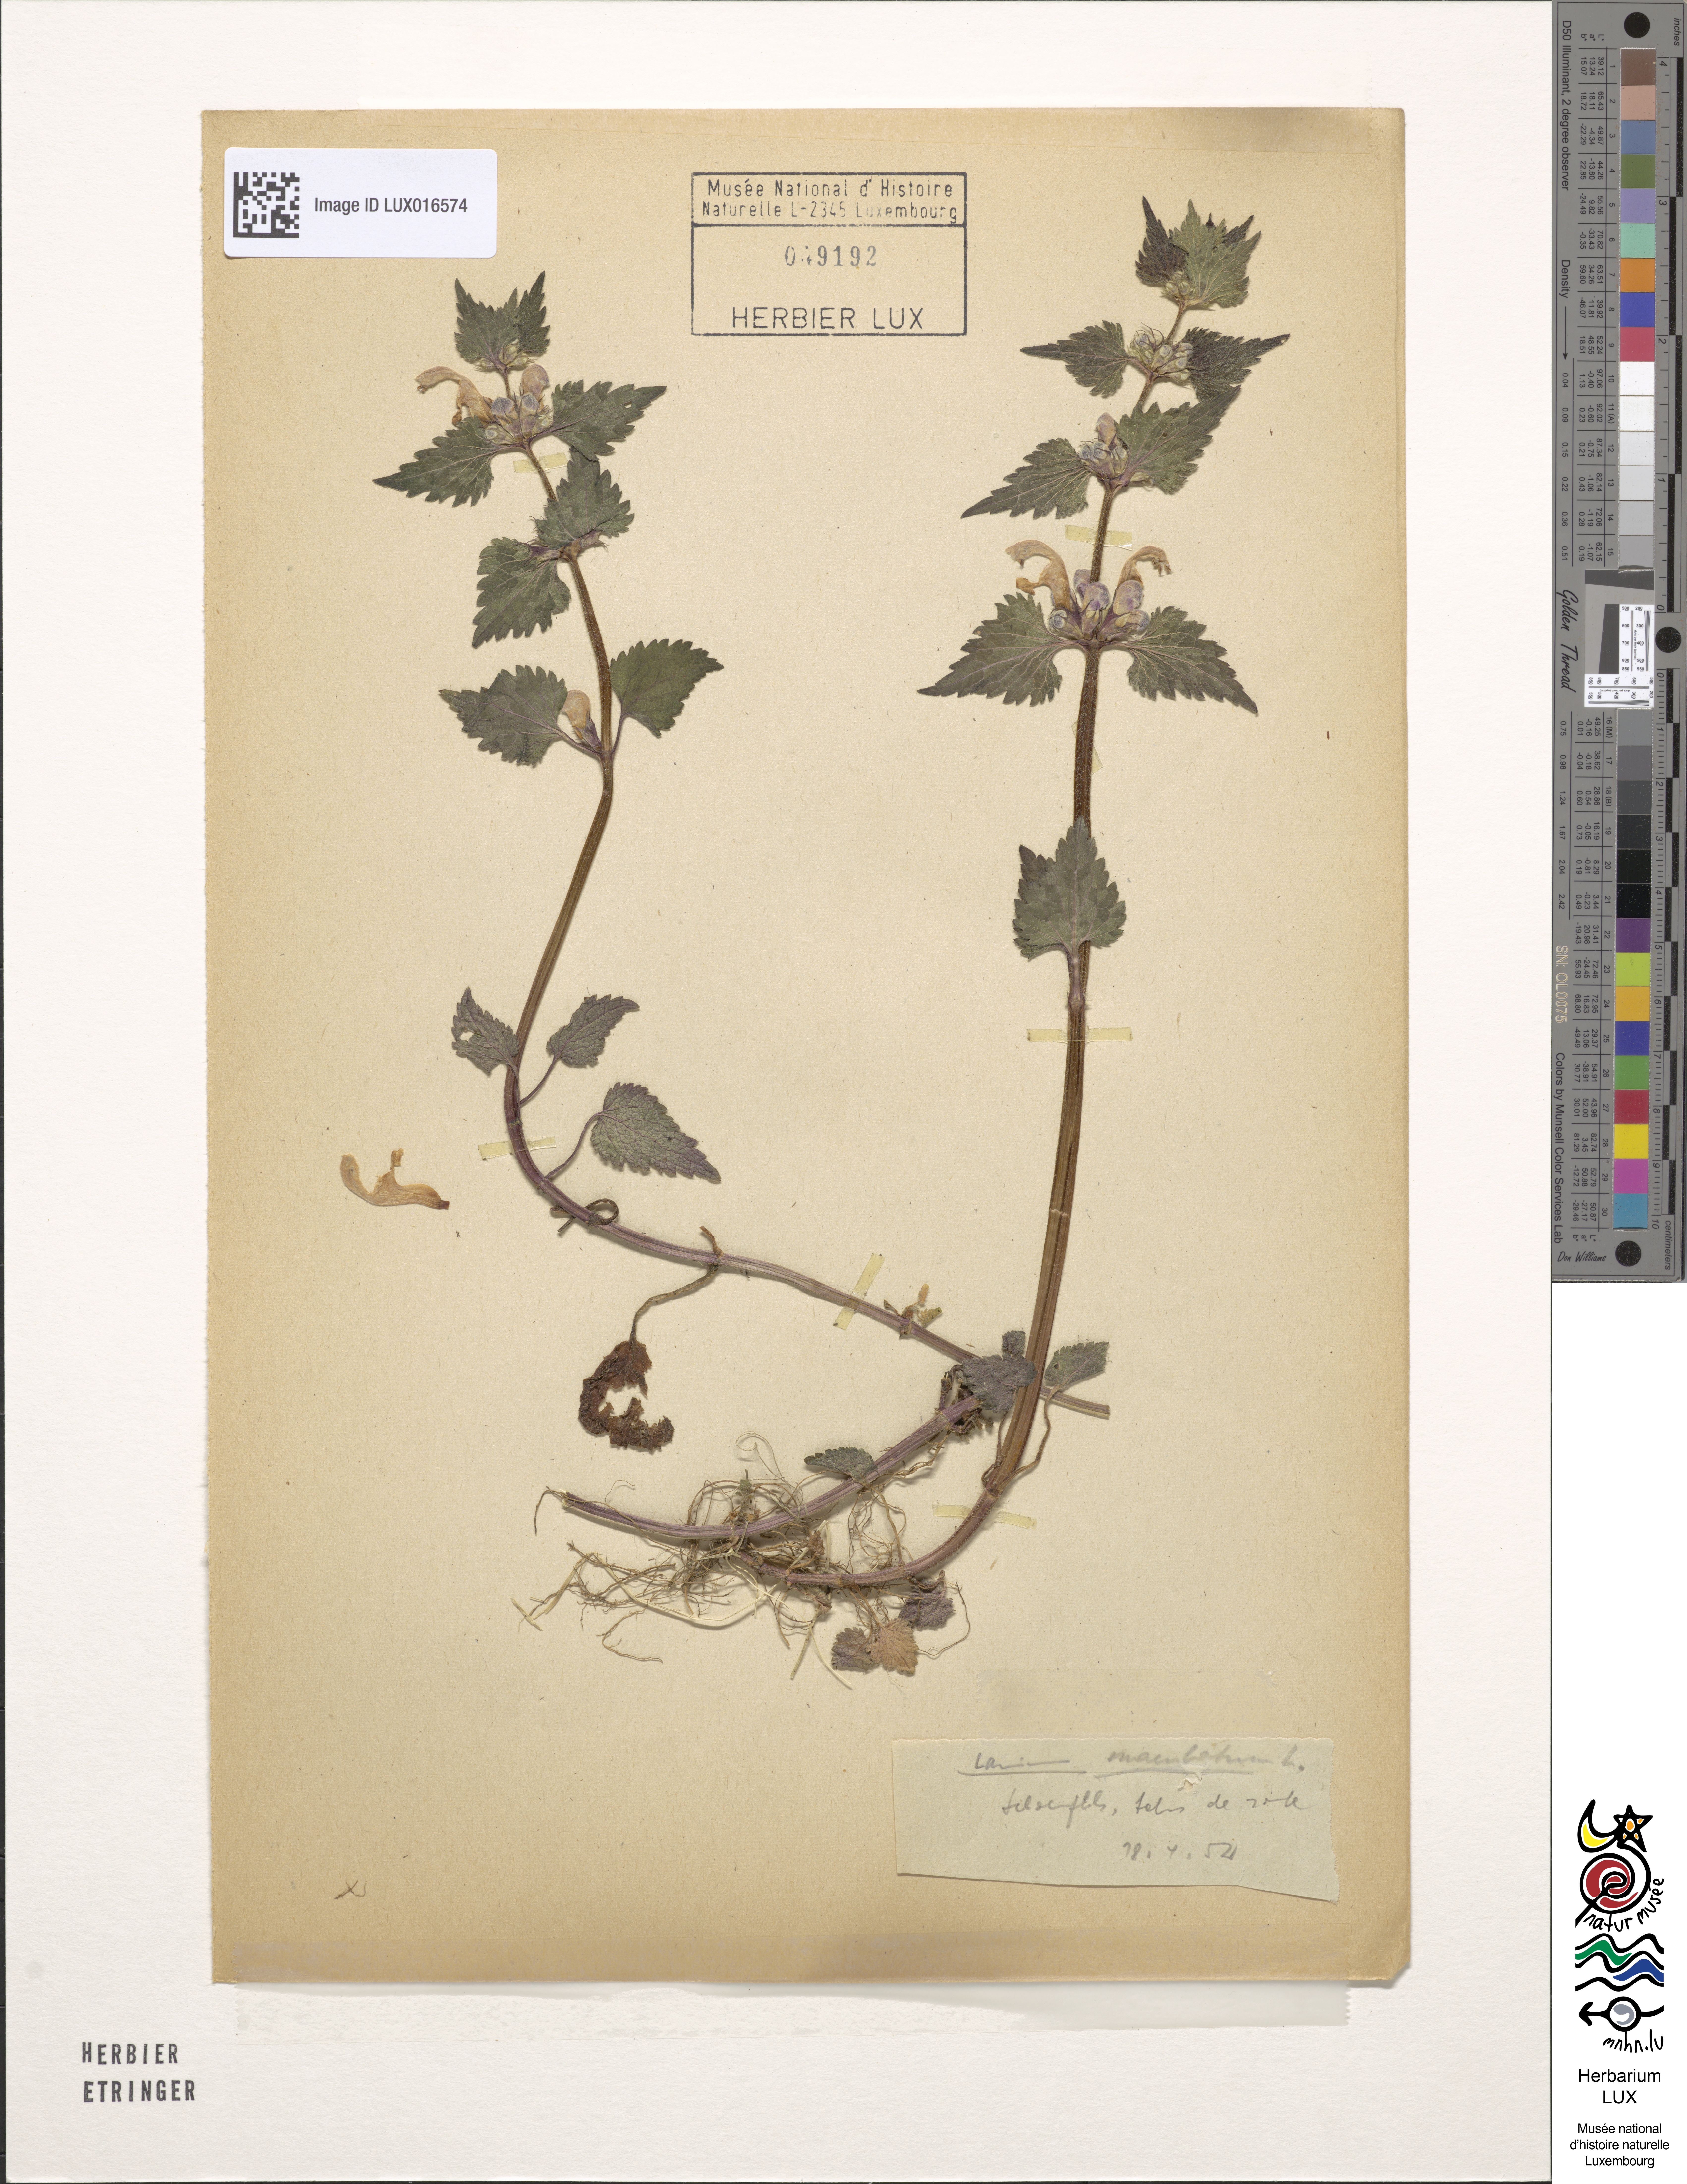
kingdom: Plantae
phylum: Tracheophyta
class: Magnoliopsida
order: Lamiales
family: Lamiaceae
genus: Lamium
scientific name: Lamium maculatum
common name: Spotted dead-nettle
